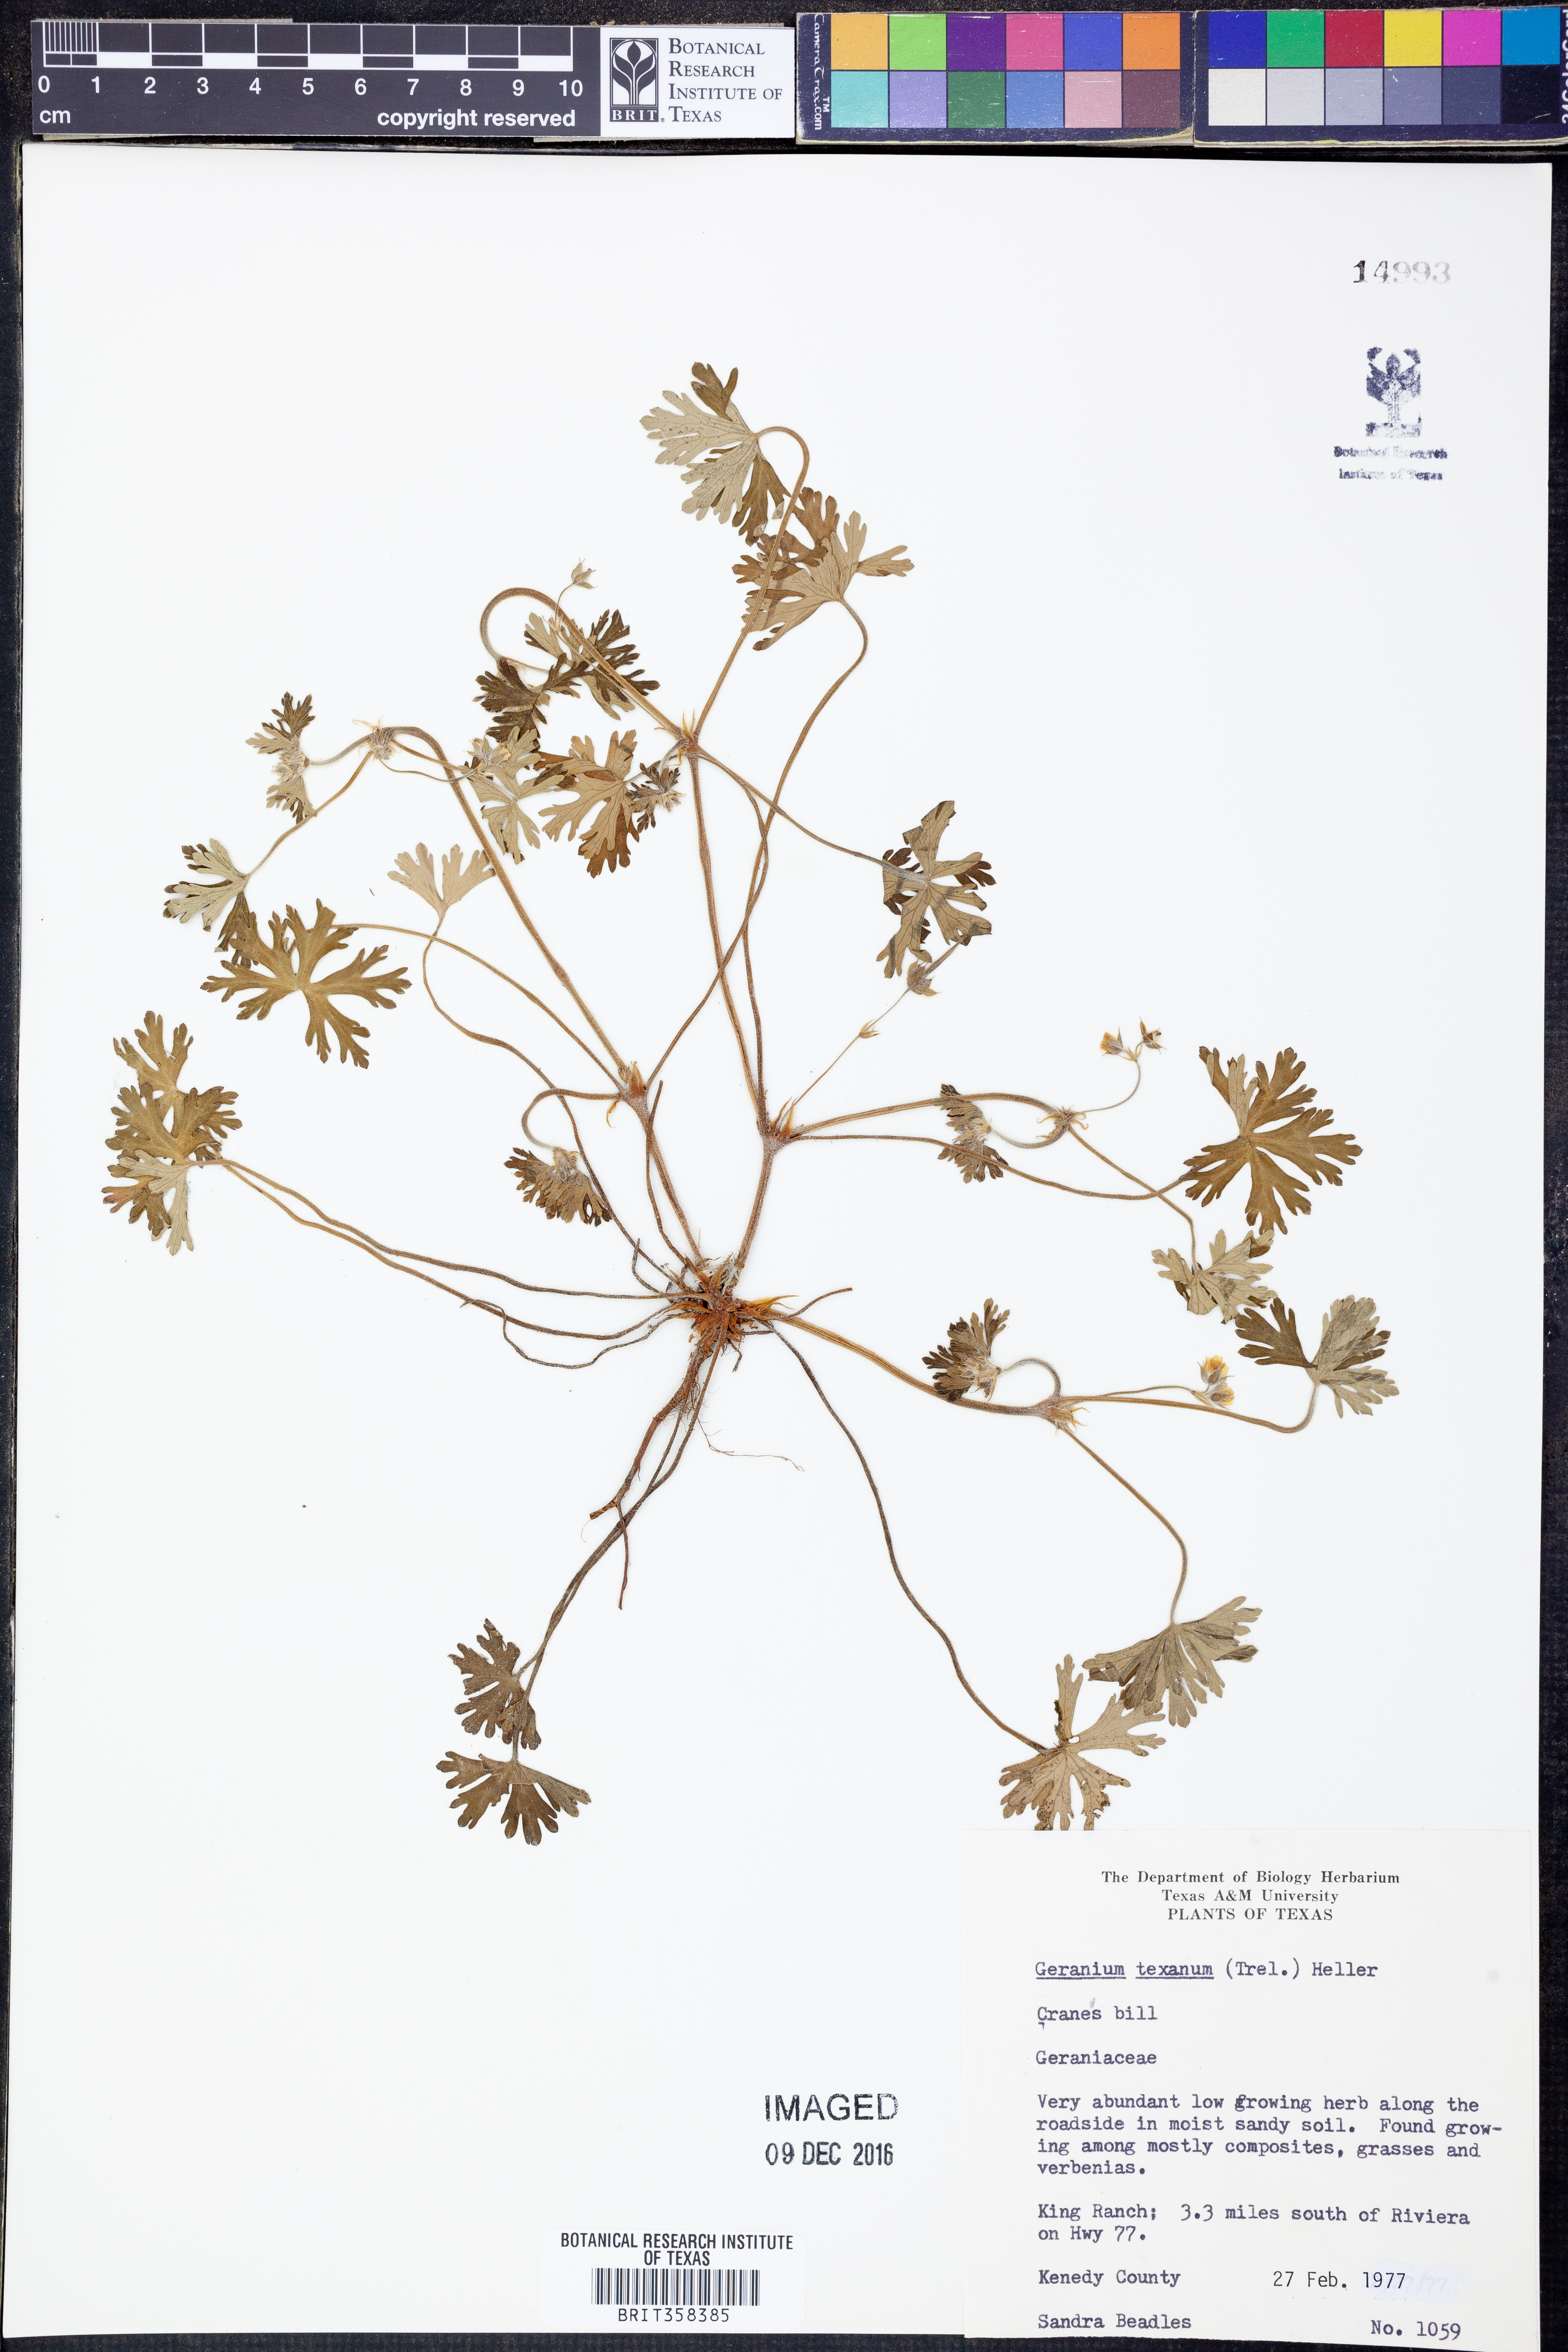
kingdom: Plantae
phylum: Tracheophyta
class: Magnoliopsida
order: Geraniales
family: Geraniaceae
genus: Geranium
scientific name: Geranium texanum
